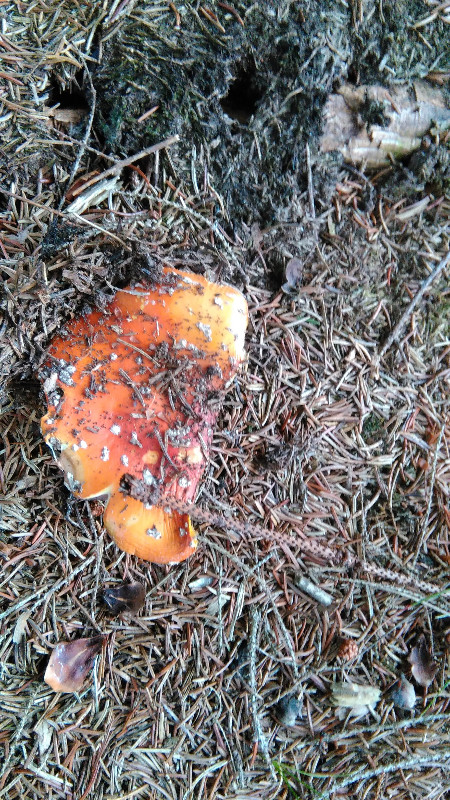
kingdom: Fungi
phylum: Basidiomycota
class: Agaricomycetes
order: Agaricales
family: Amanitaceae
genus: Amanita
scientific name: Amanita muscaria
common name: rød fluesvamp
